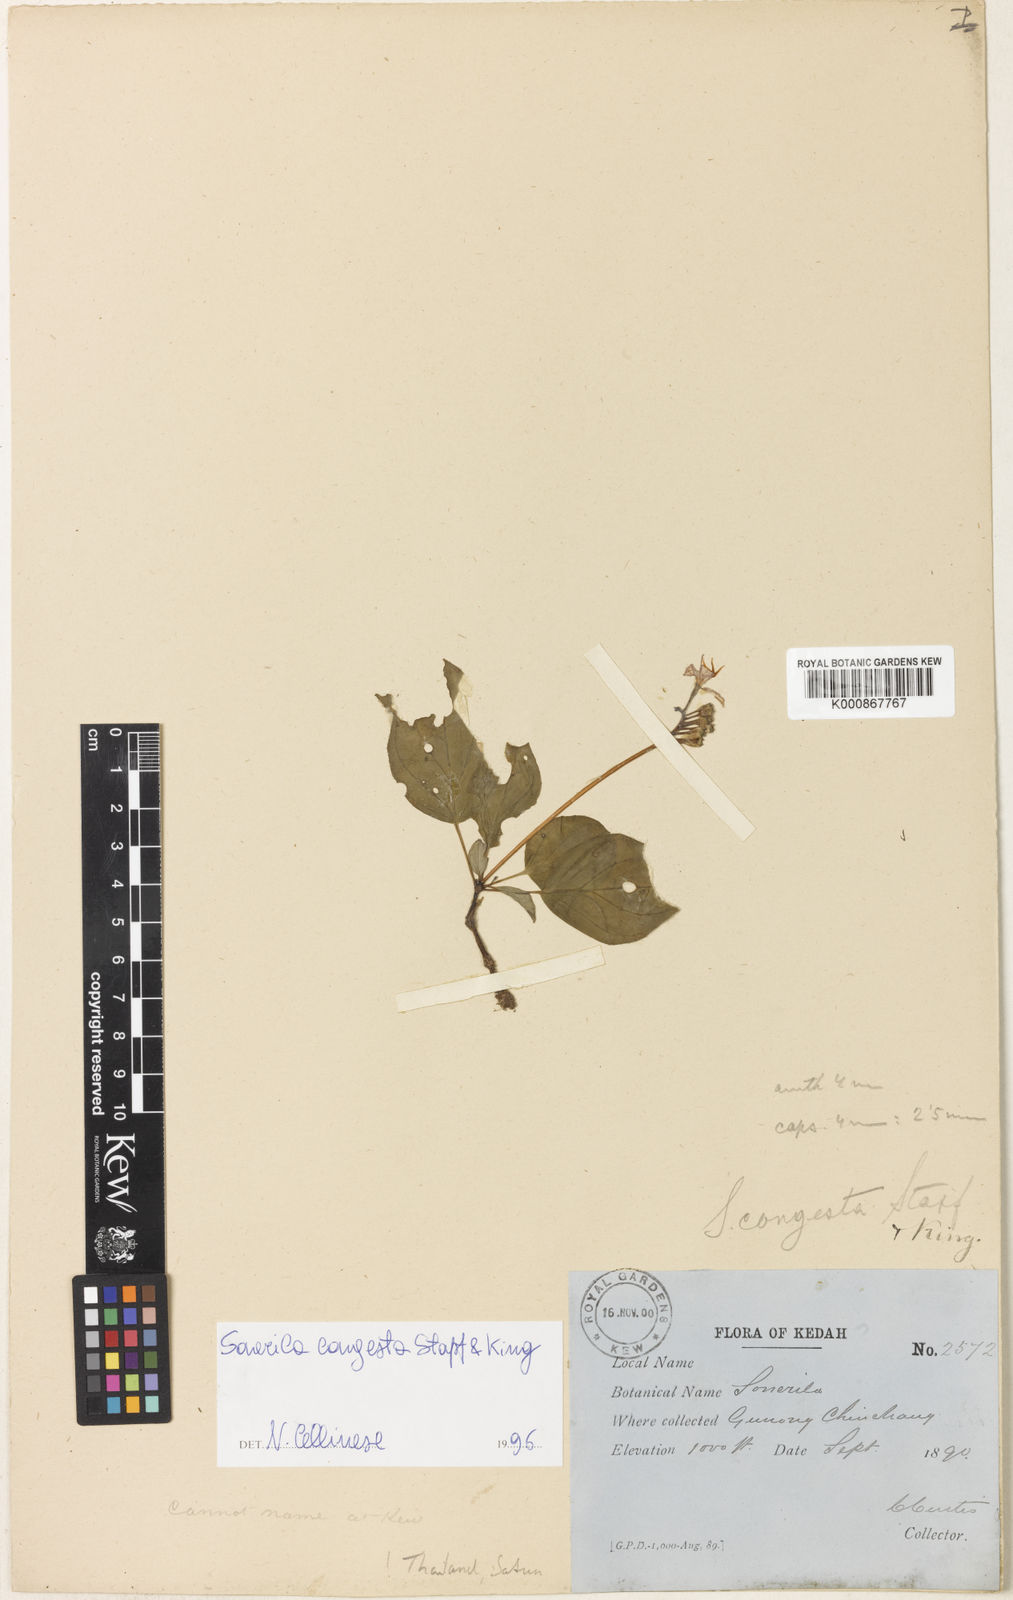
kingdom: Plantae
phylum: Tracheophyta
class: Magnoliopsida
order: Myrtales
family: Melastomataceae
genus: Sonerila
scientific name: Sonerila griffithii
